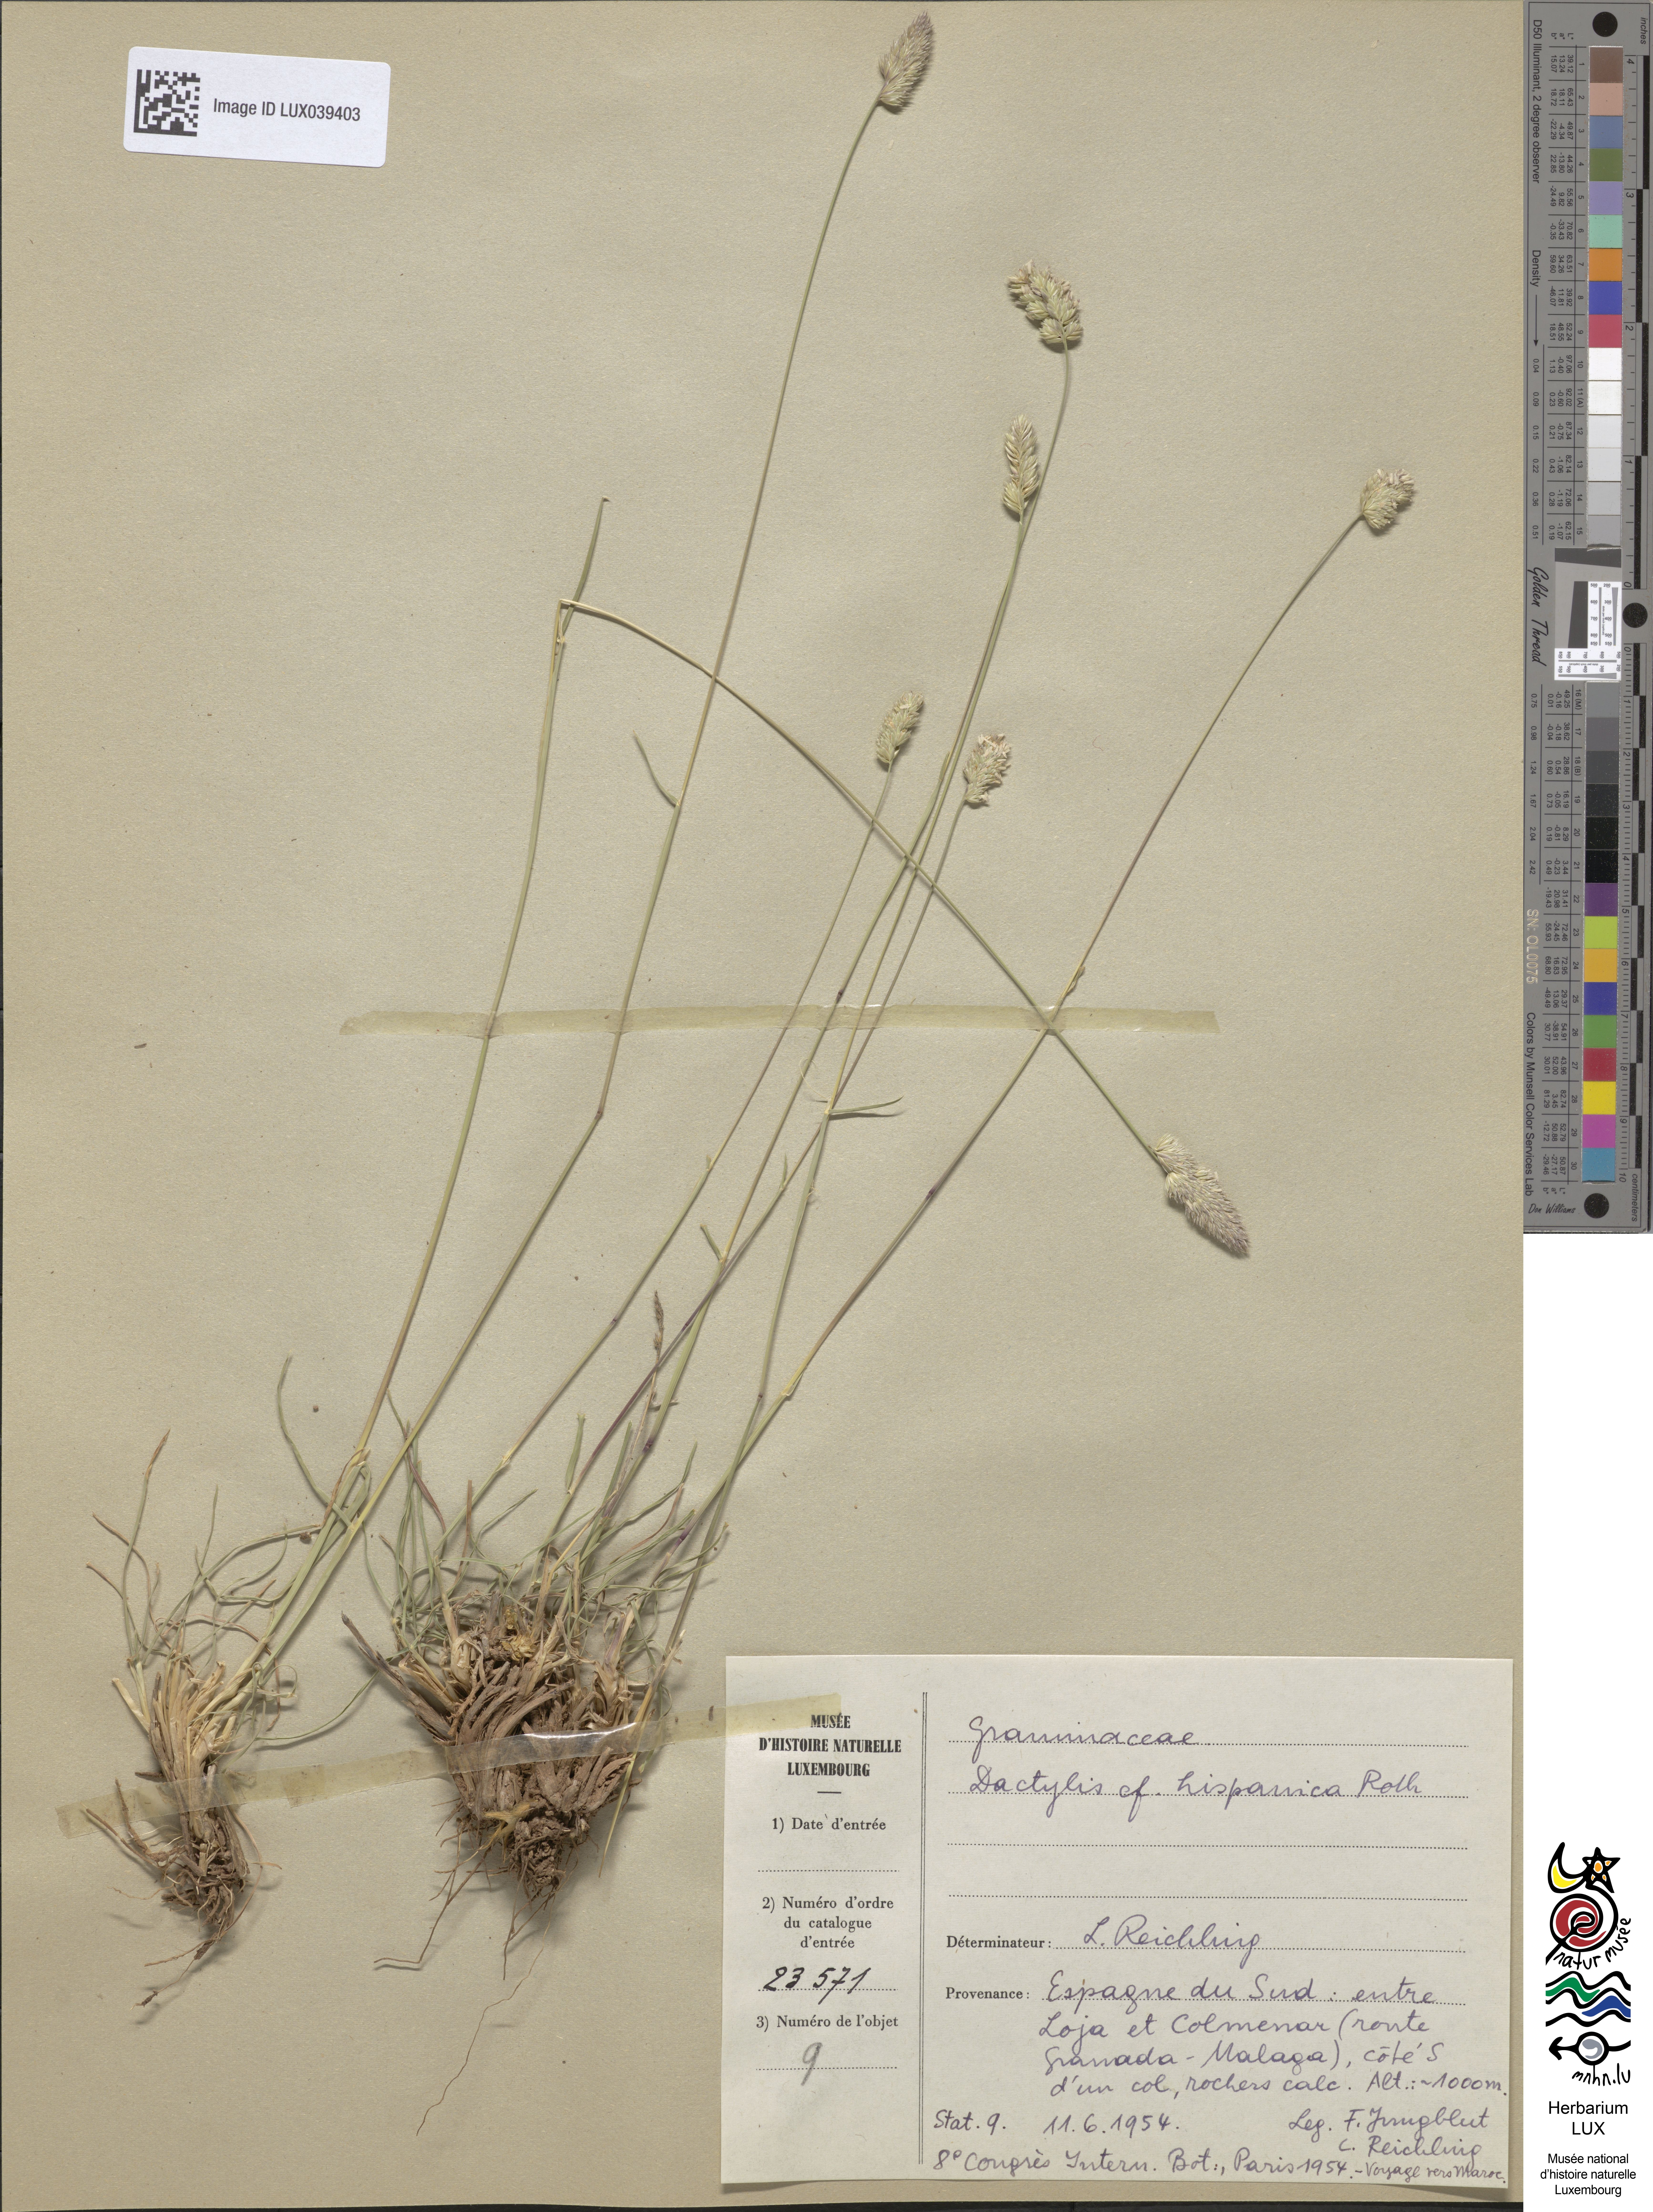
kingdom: Plantae
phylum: Tracheophyta
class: Liliopsida
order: Poales
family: Poaceae
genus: Dactylis
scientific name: Dactylis glomerata
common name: Orchardgrass
